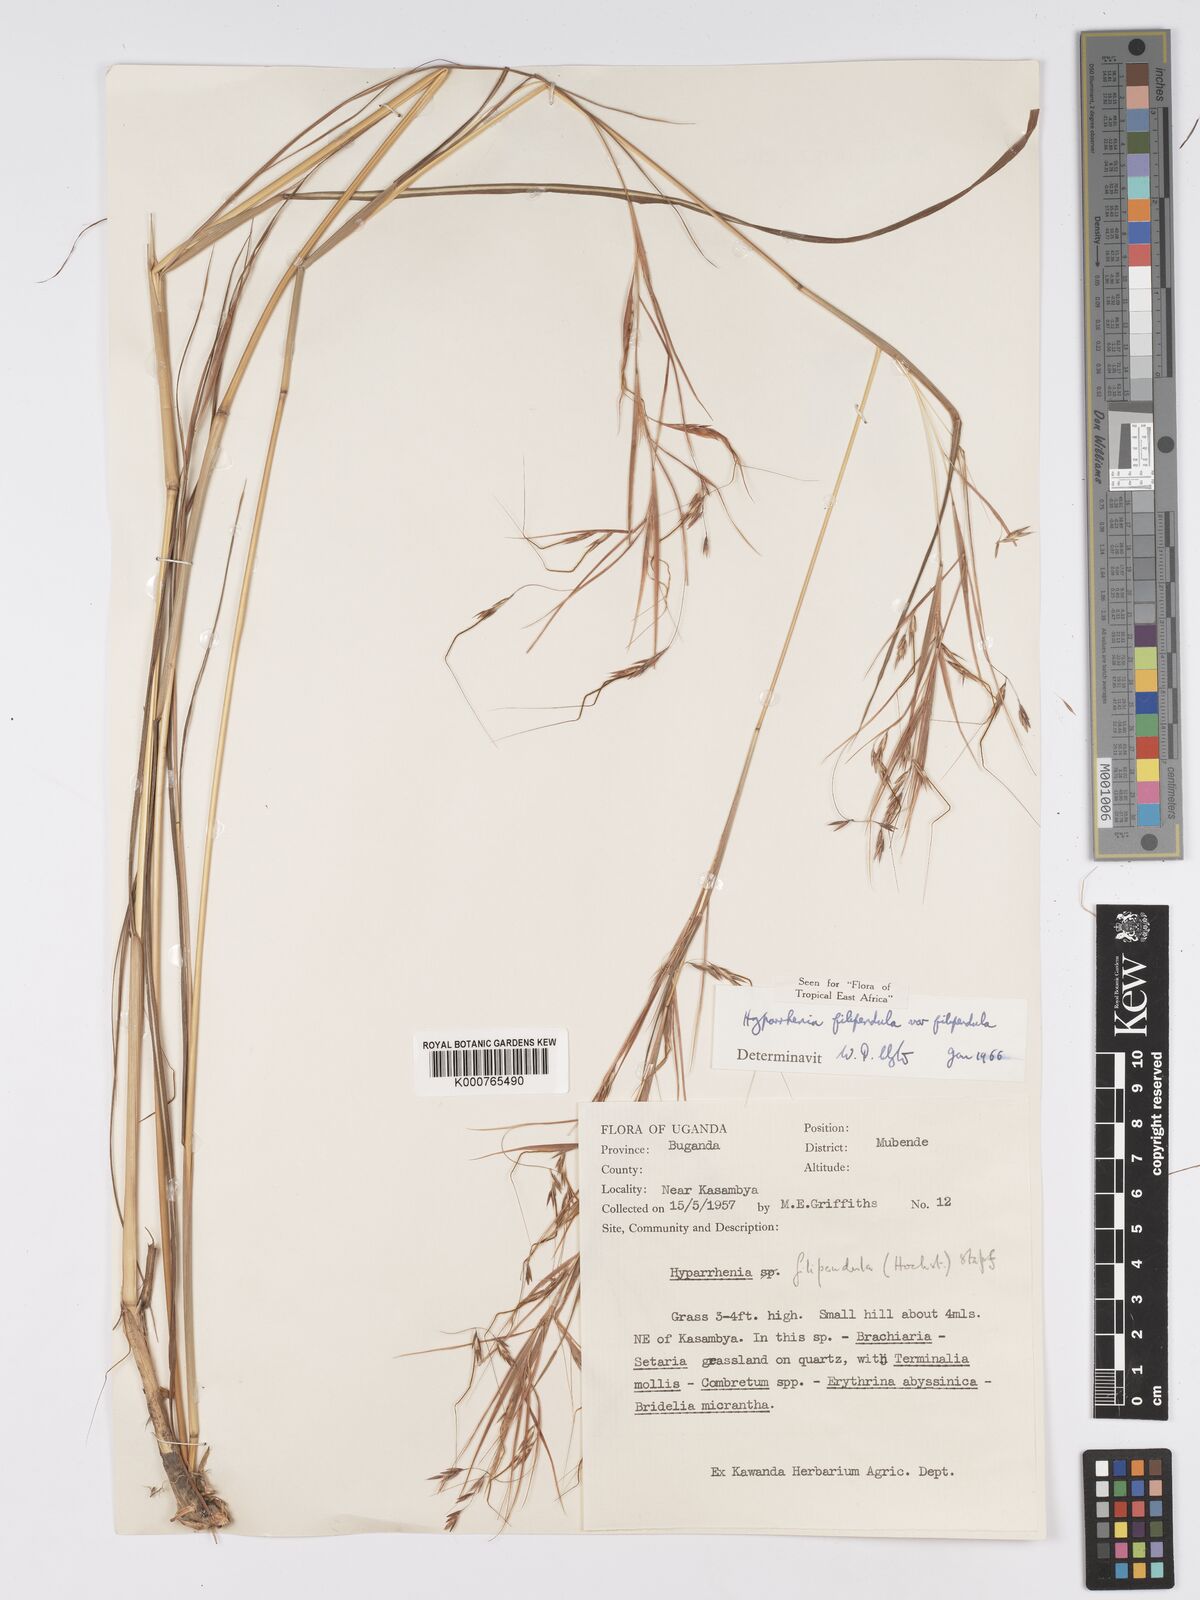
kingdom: Plantae
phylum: Tracheophyta
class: Liliopsida
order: Poales
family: Poaceae
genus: Hyparrhenia
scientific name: Hyparrhenia filipendula
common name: Tambookie grass
